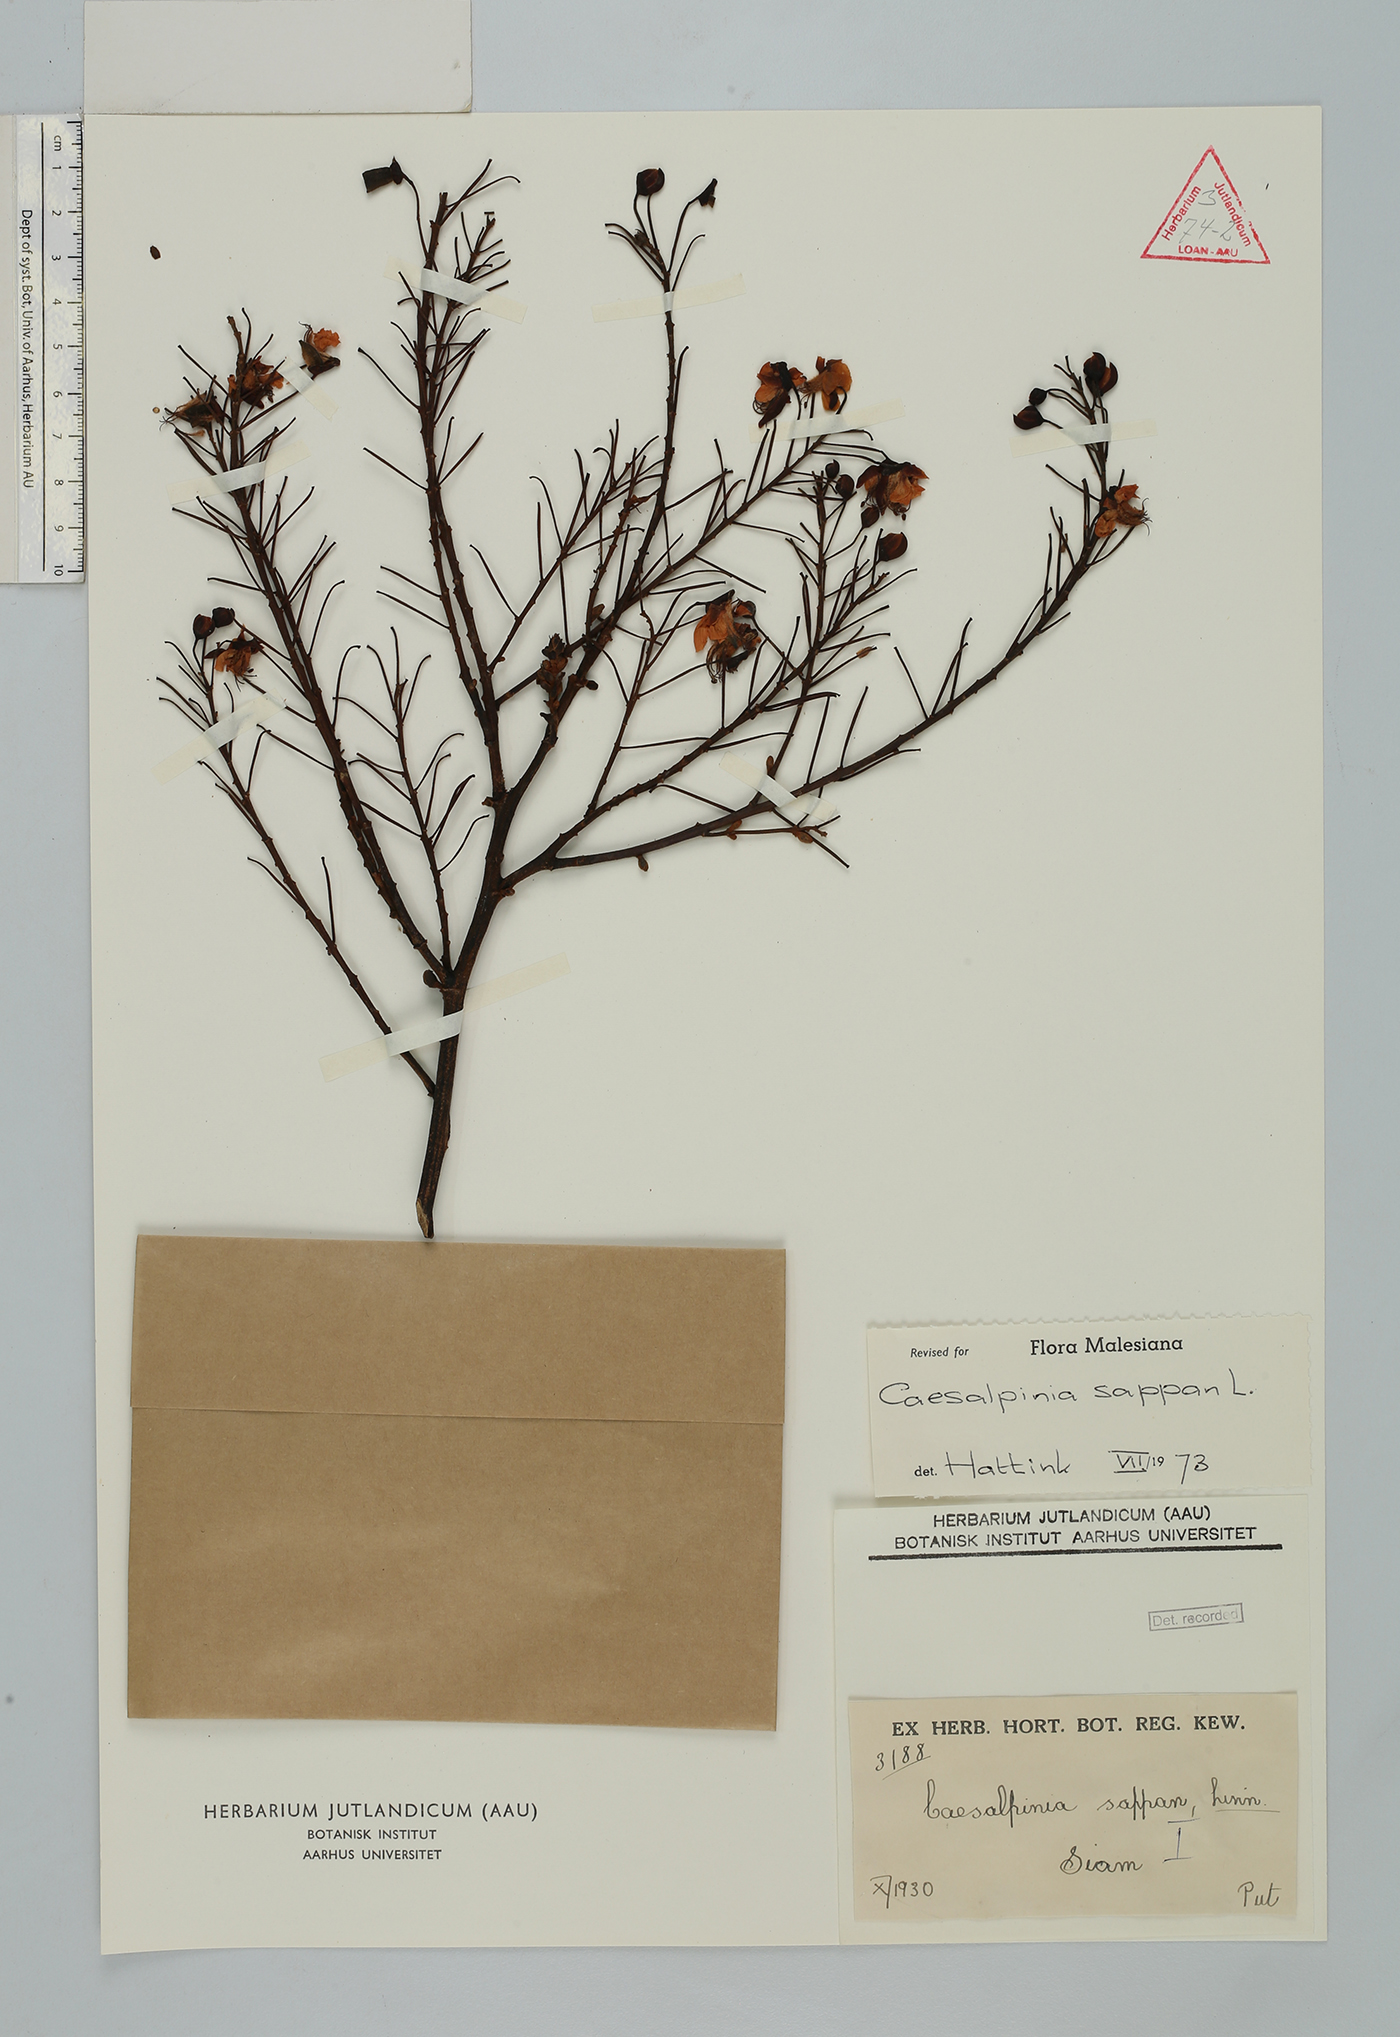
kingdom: Plantae
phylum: Tracheophyta
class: Magnoliopsida
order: Fabales
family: Fabaceae
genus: Biancaea
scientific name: Biancaea sappan
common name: Sappan
